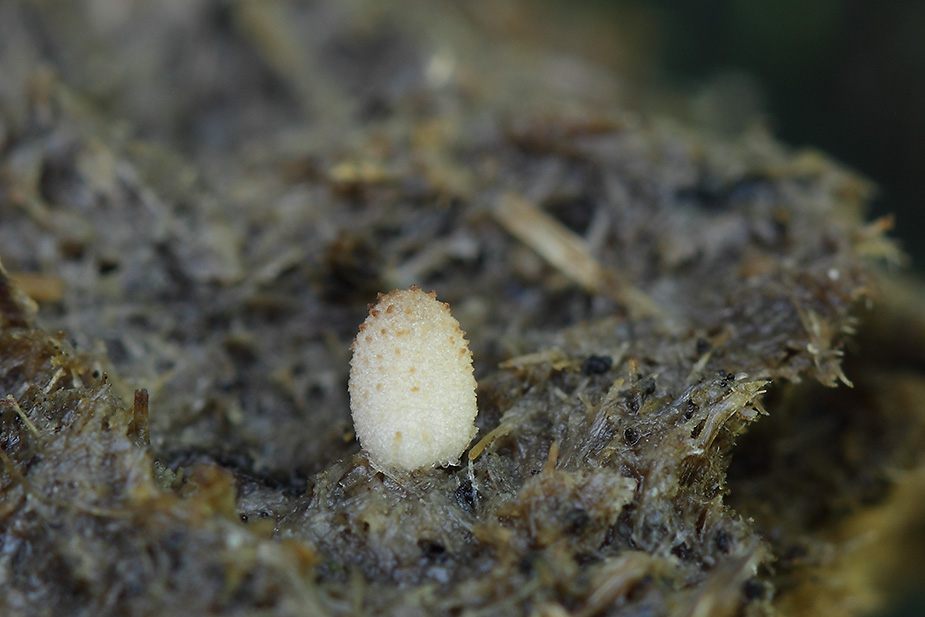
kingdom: Fungi
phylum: Basidiomycota
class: Agaricomycetes
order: Agaricales
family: Psathyrellaceae
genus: Narcissea
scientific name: Narcissea ephemeroides
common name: ring-blækhat
